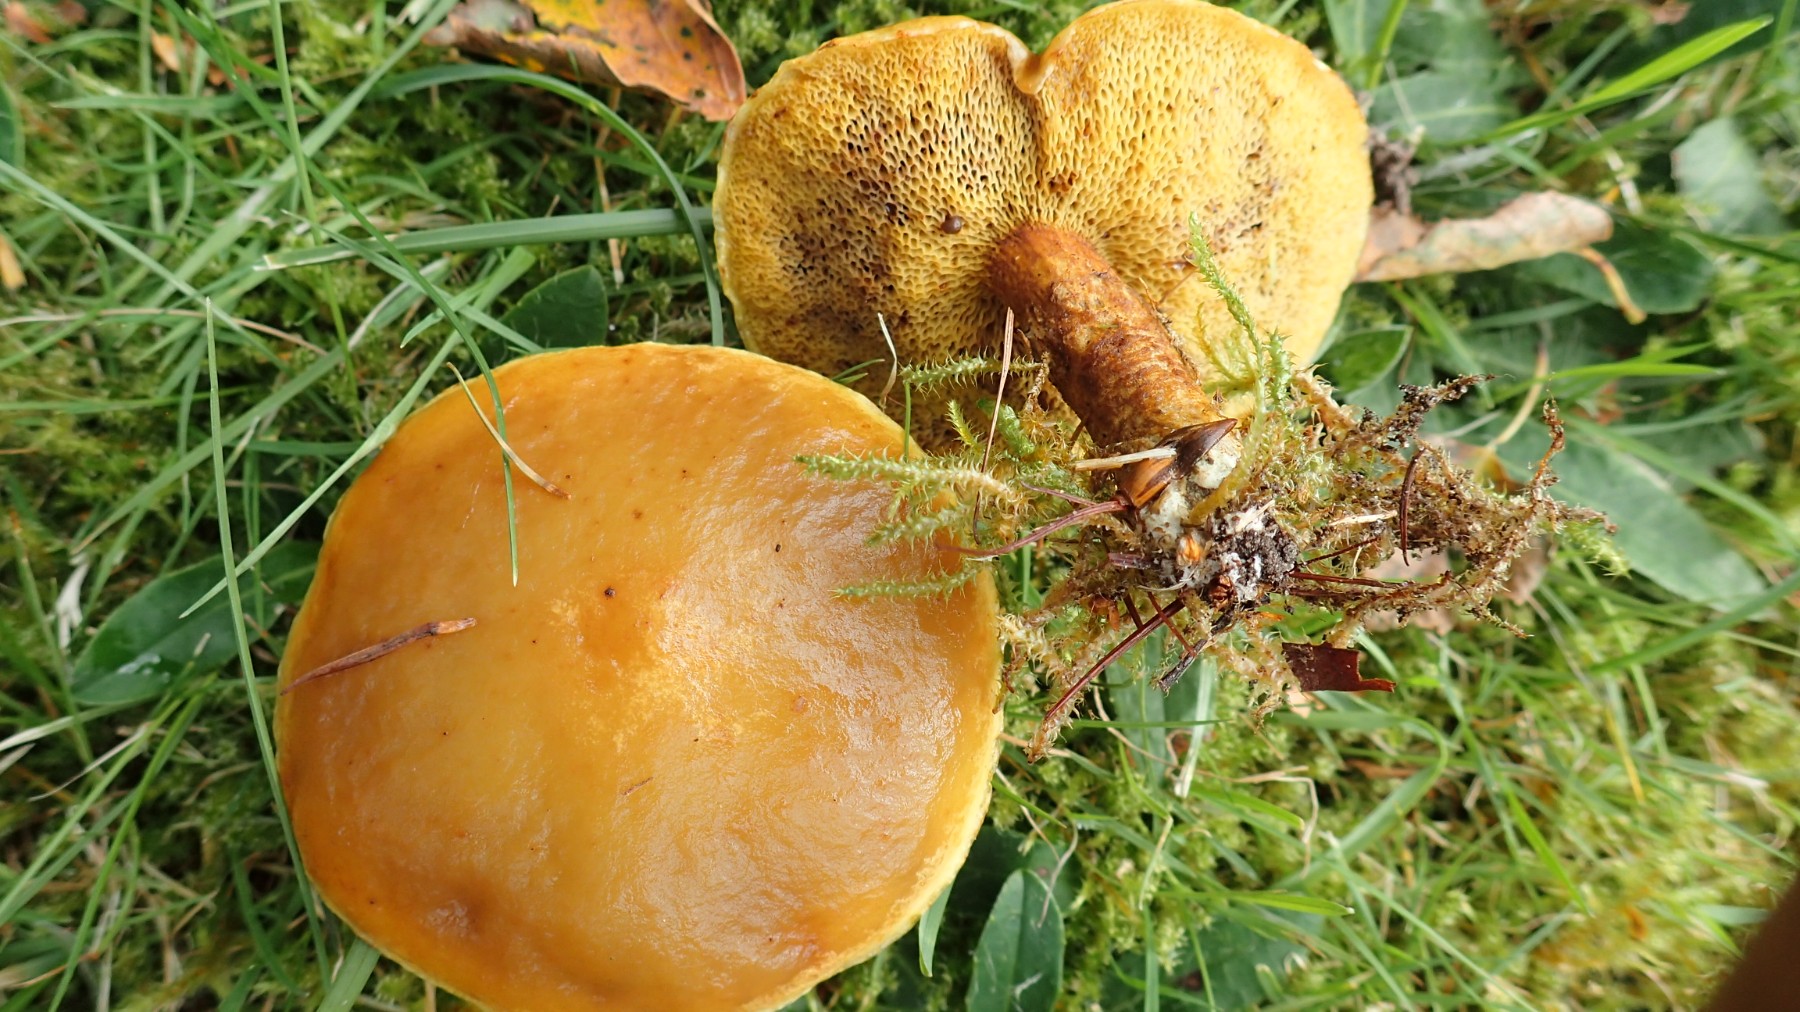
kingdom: Fungi
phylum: Basidiomycota
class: Agaricomycetes
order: Boletales
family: Suillaceae
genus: Suillus
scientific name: Suillus grevillei
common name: lærke-slimrørhat
